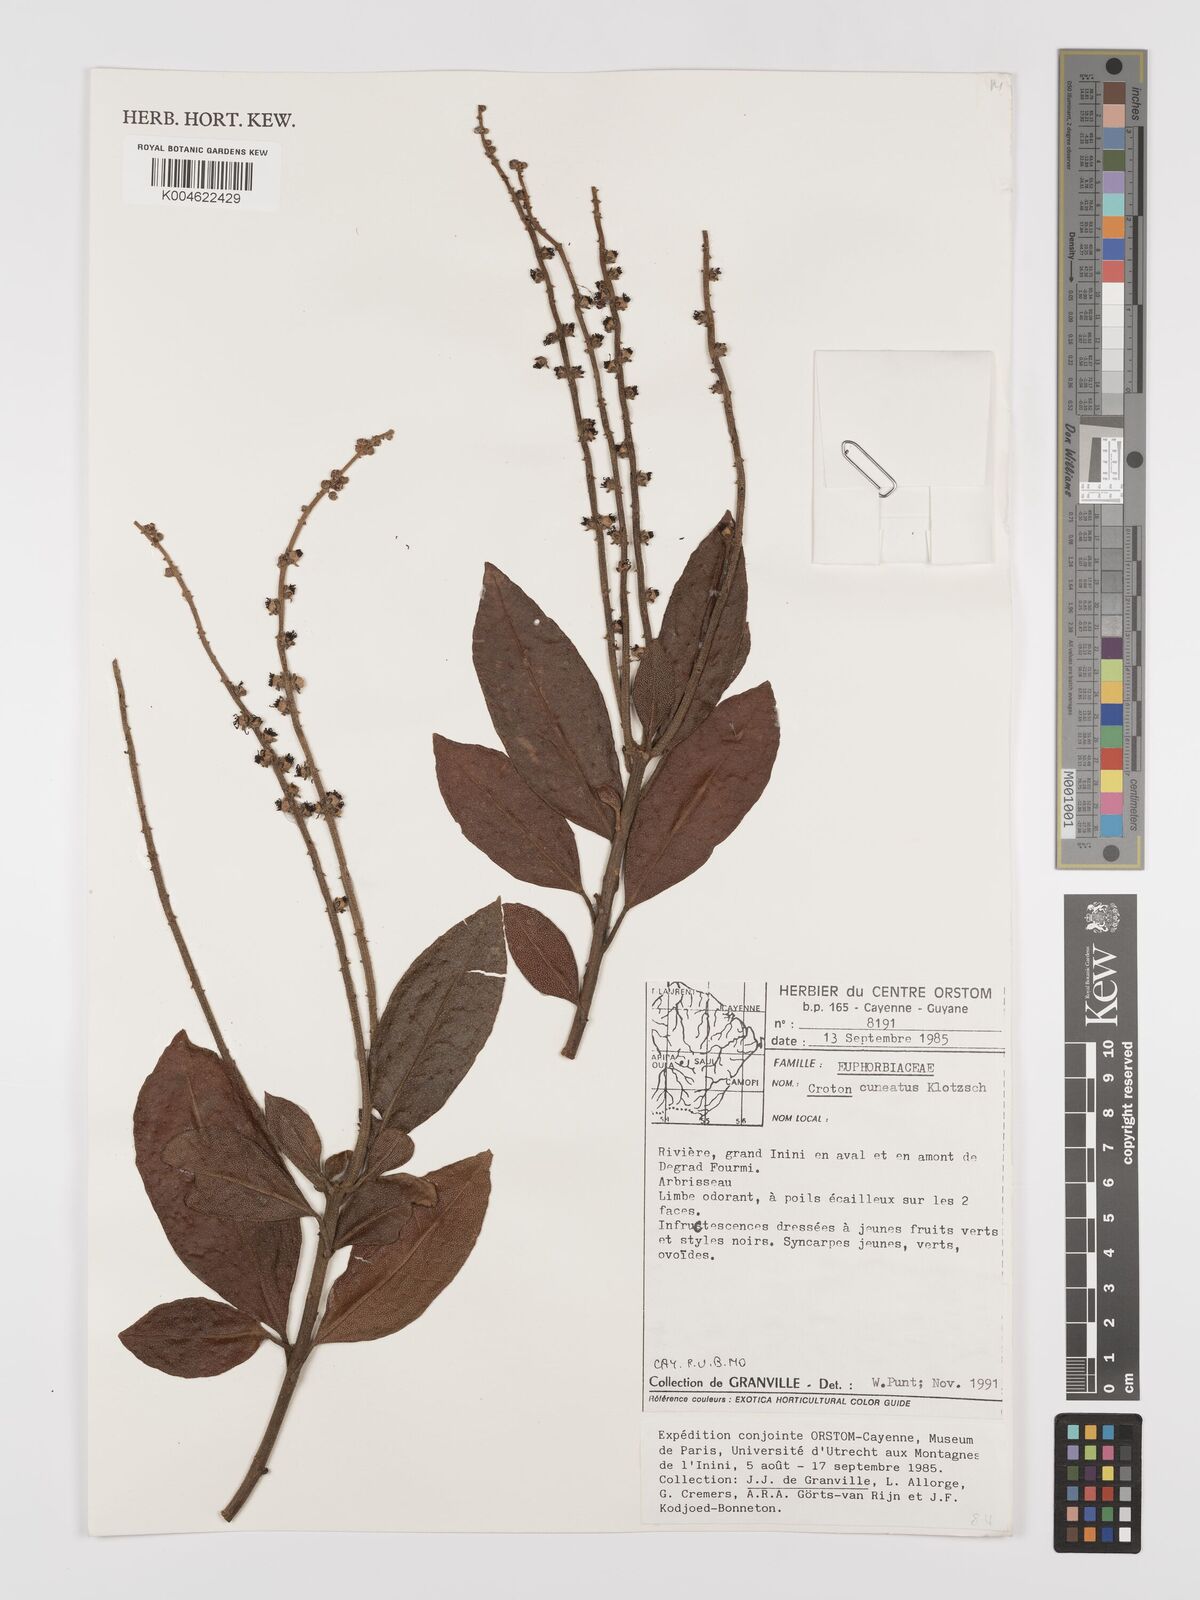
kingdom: Plantae
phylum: Tracheophyta
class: Magnoliopsida
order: Malpighiales
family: Euphorbiaceae
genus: Croton
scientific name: Croton
